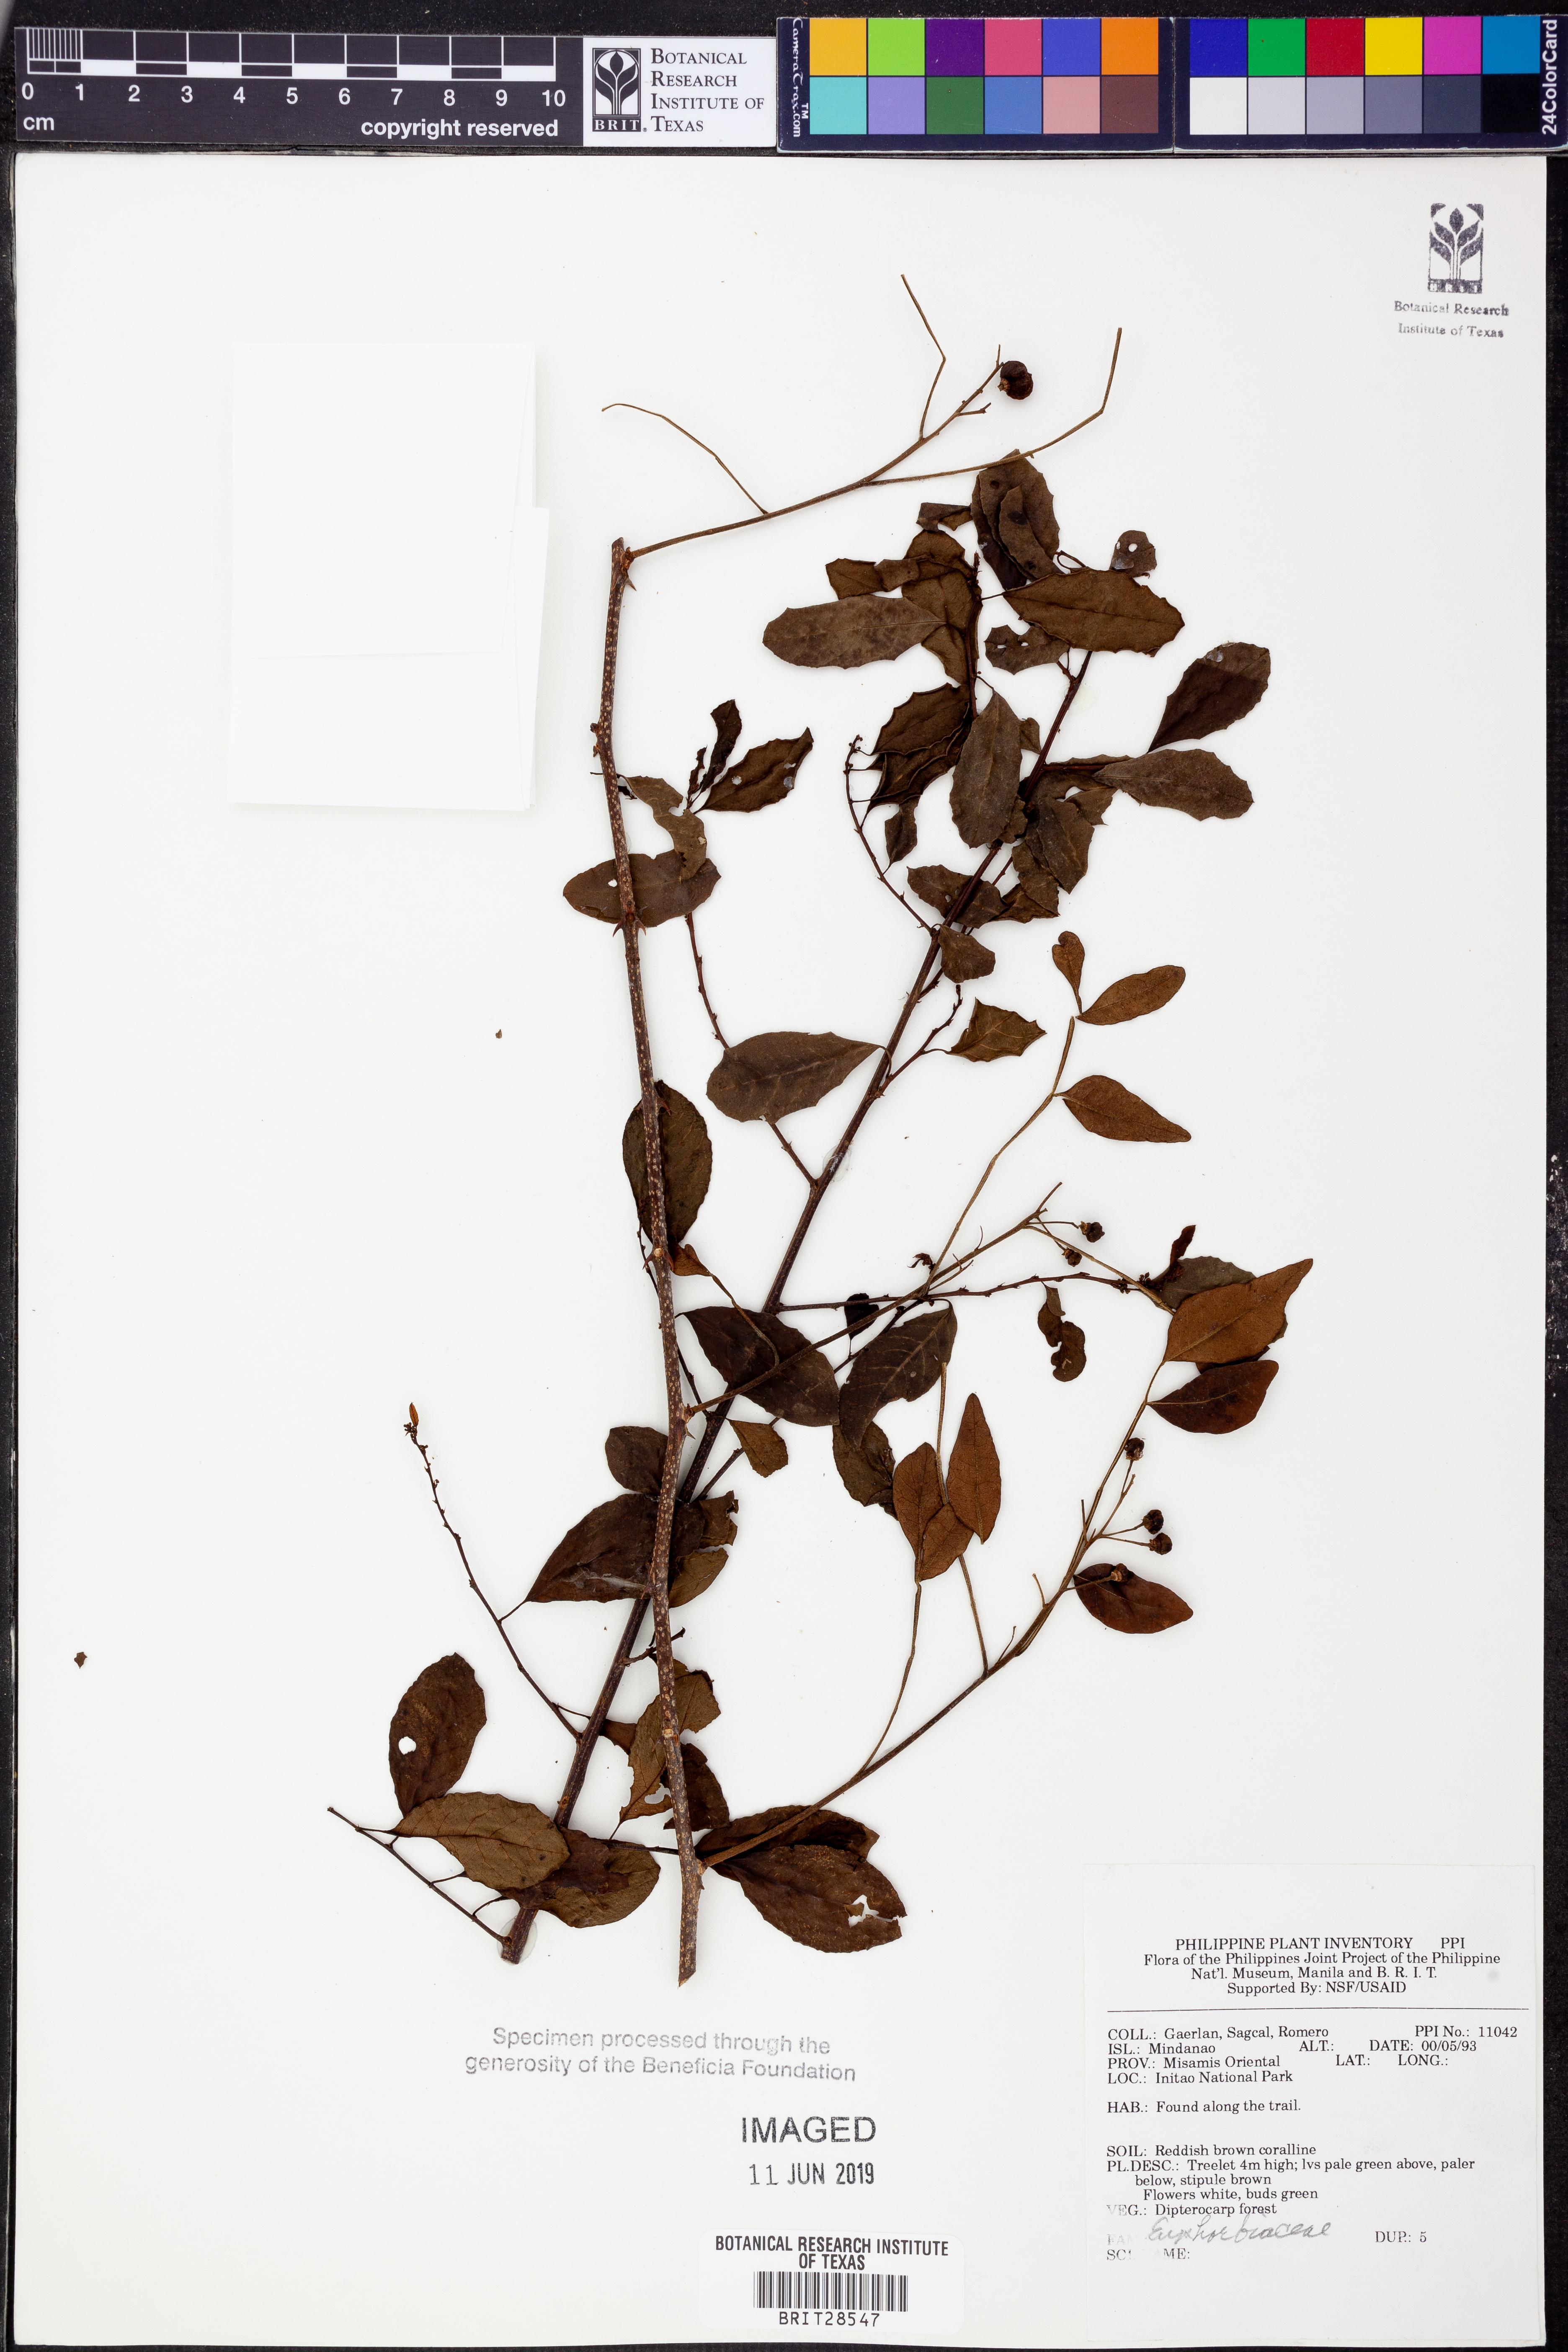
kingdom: Plantae
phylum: Tracheophyta
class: Magnoliopsida
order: Malpighiales
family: Euphorbiaceae
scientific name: Euphorbiaceae
